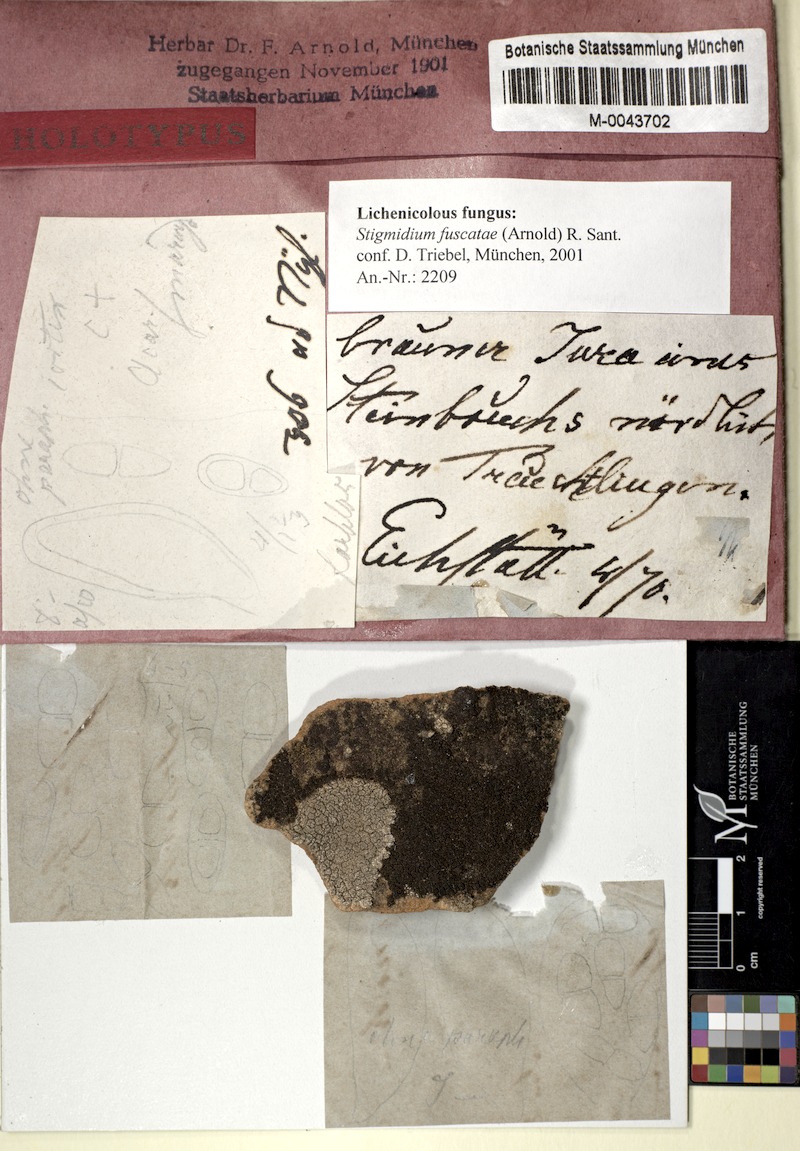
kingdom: Fungi
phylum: Ascomycota
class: Lecanoromycetes
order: Acarosporales
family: Acarosporaceae
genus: Acarospora
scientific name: Acarospora fuscata
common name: Brown cobblestone lichen
